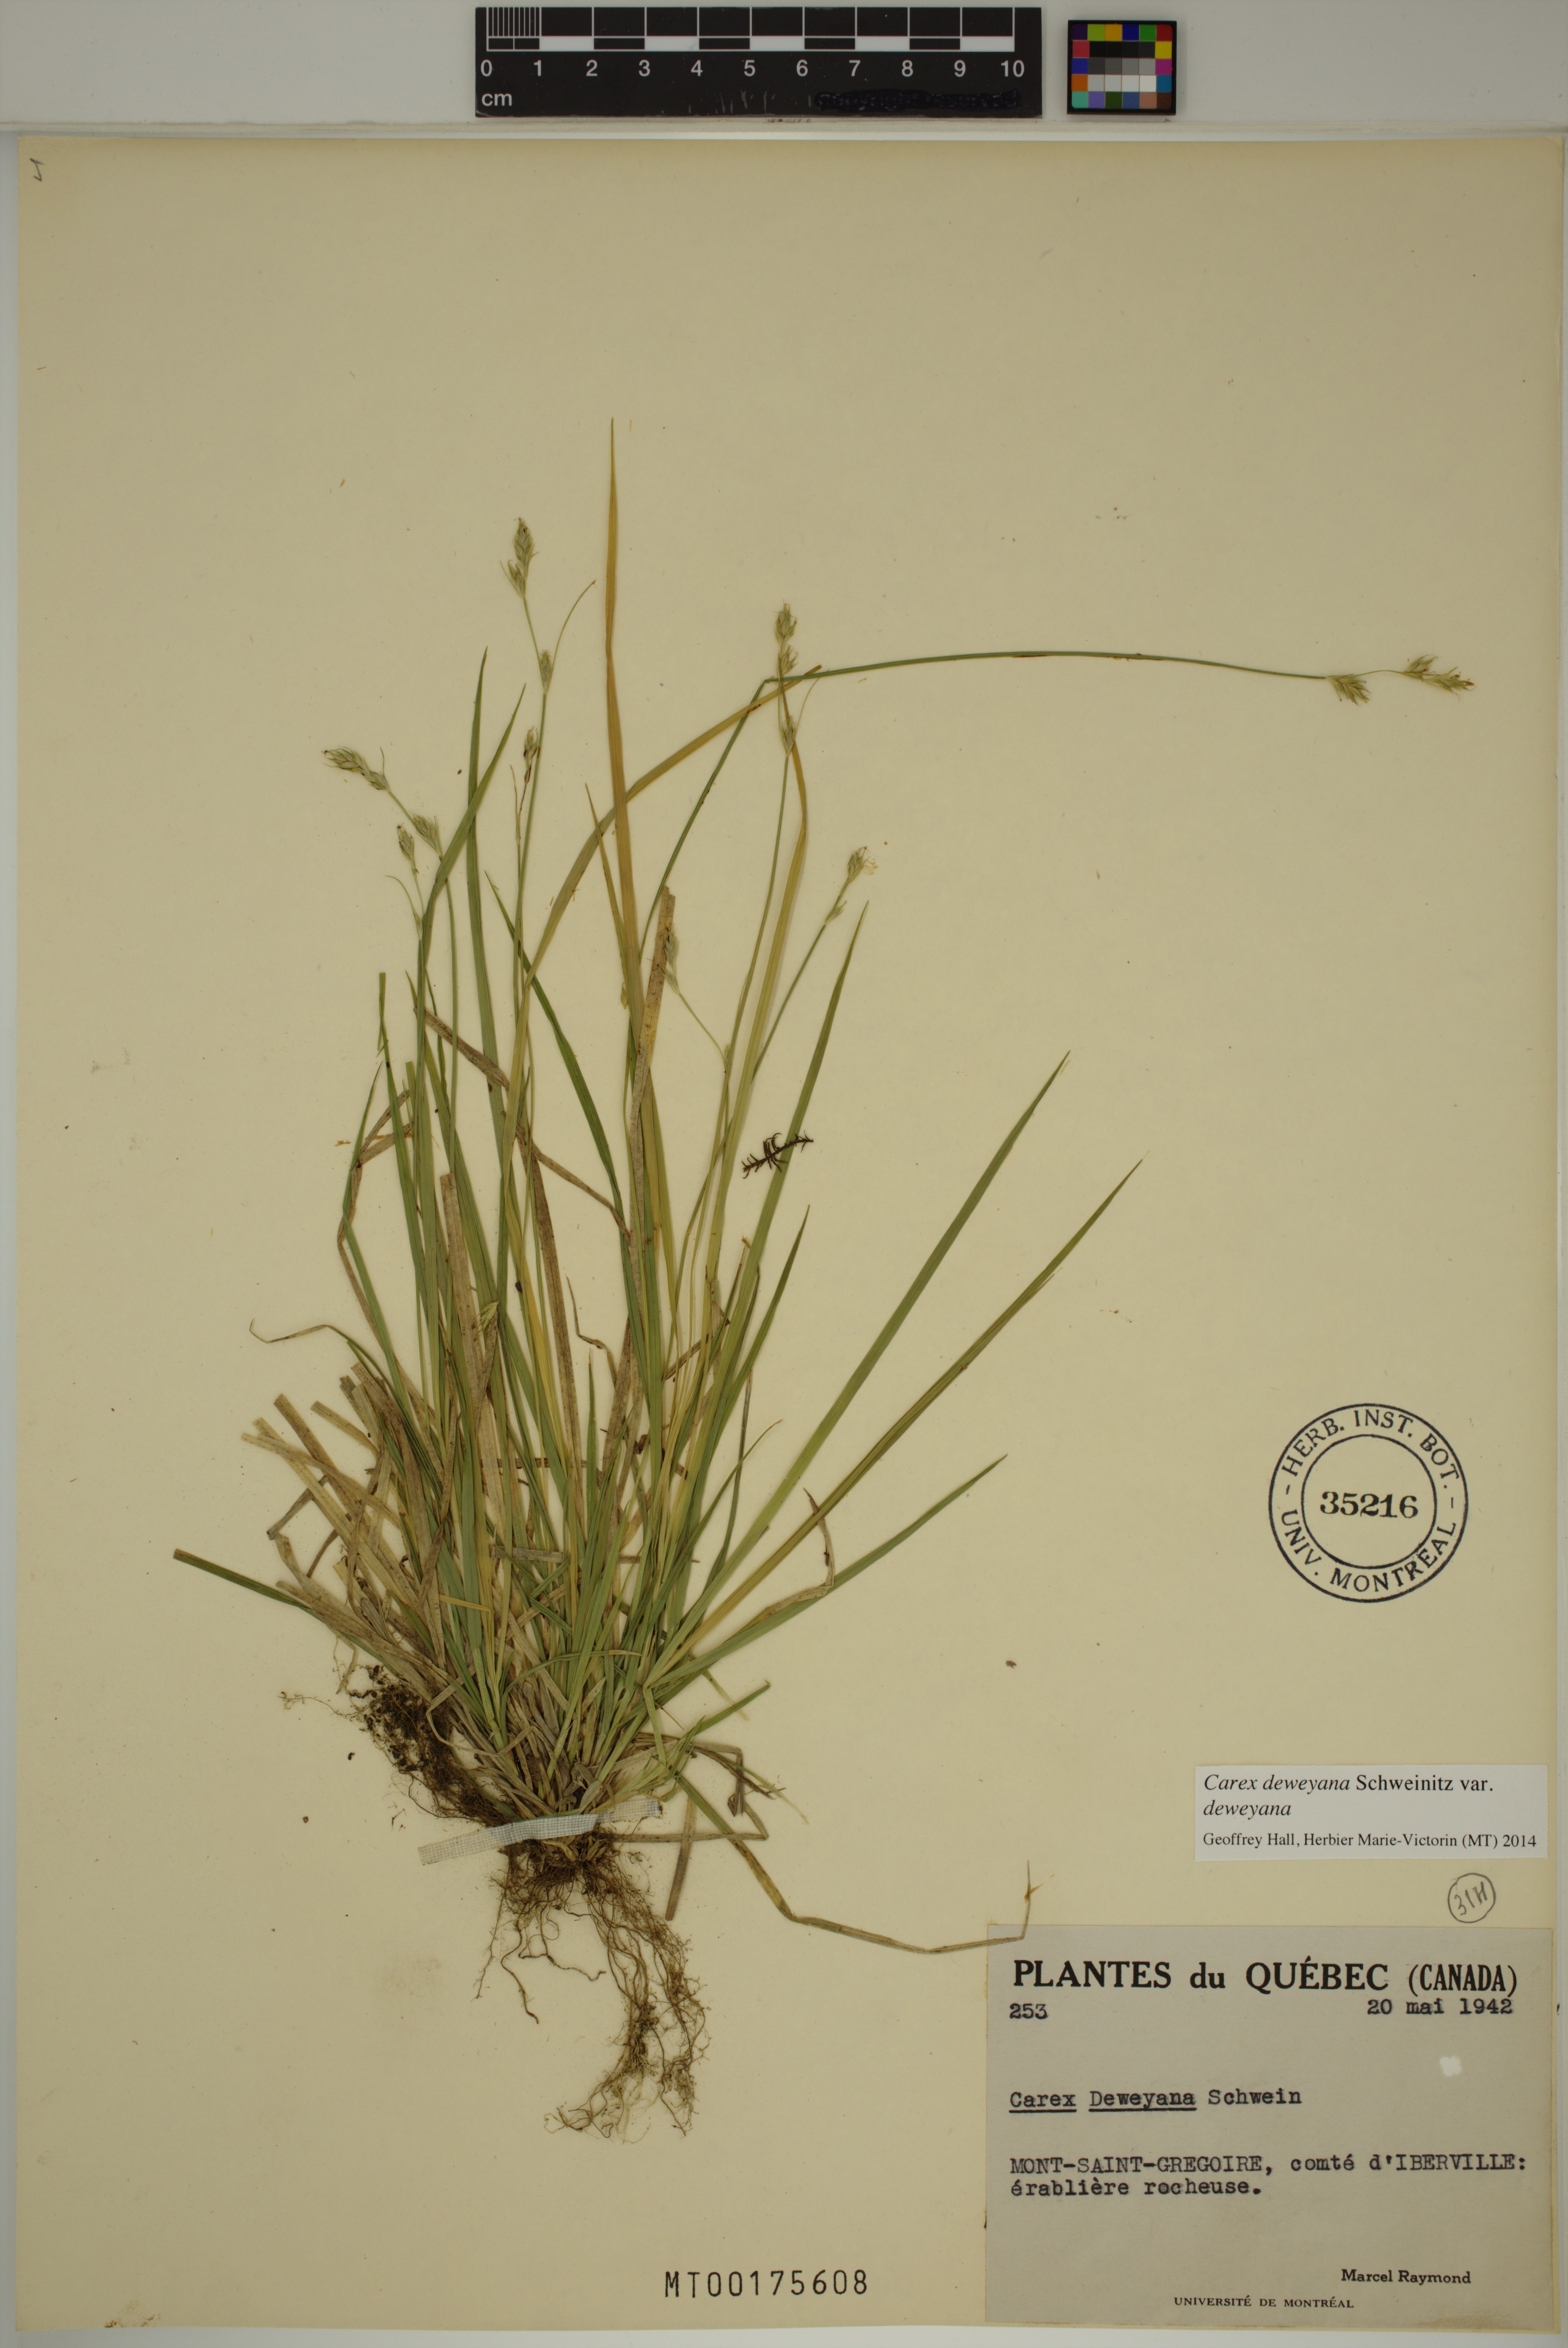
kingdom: Plantae
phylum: Tracheophyta
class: Liliopsida
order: Poales
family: Cyperaceae
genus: Carex
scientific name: Carex deweyana
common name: Dewey's sedge
